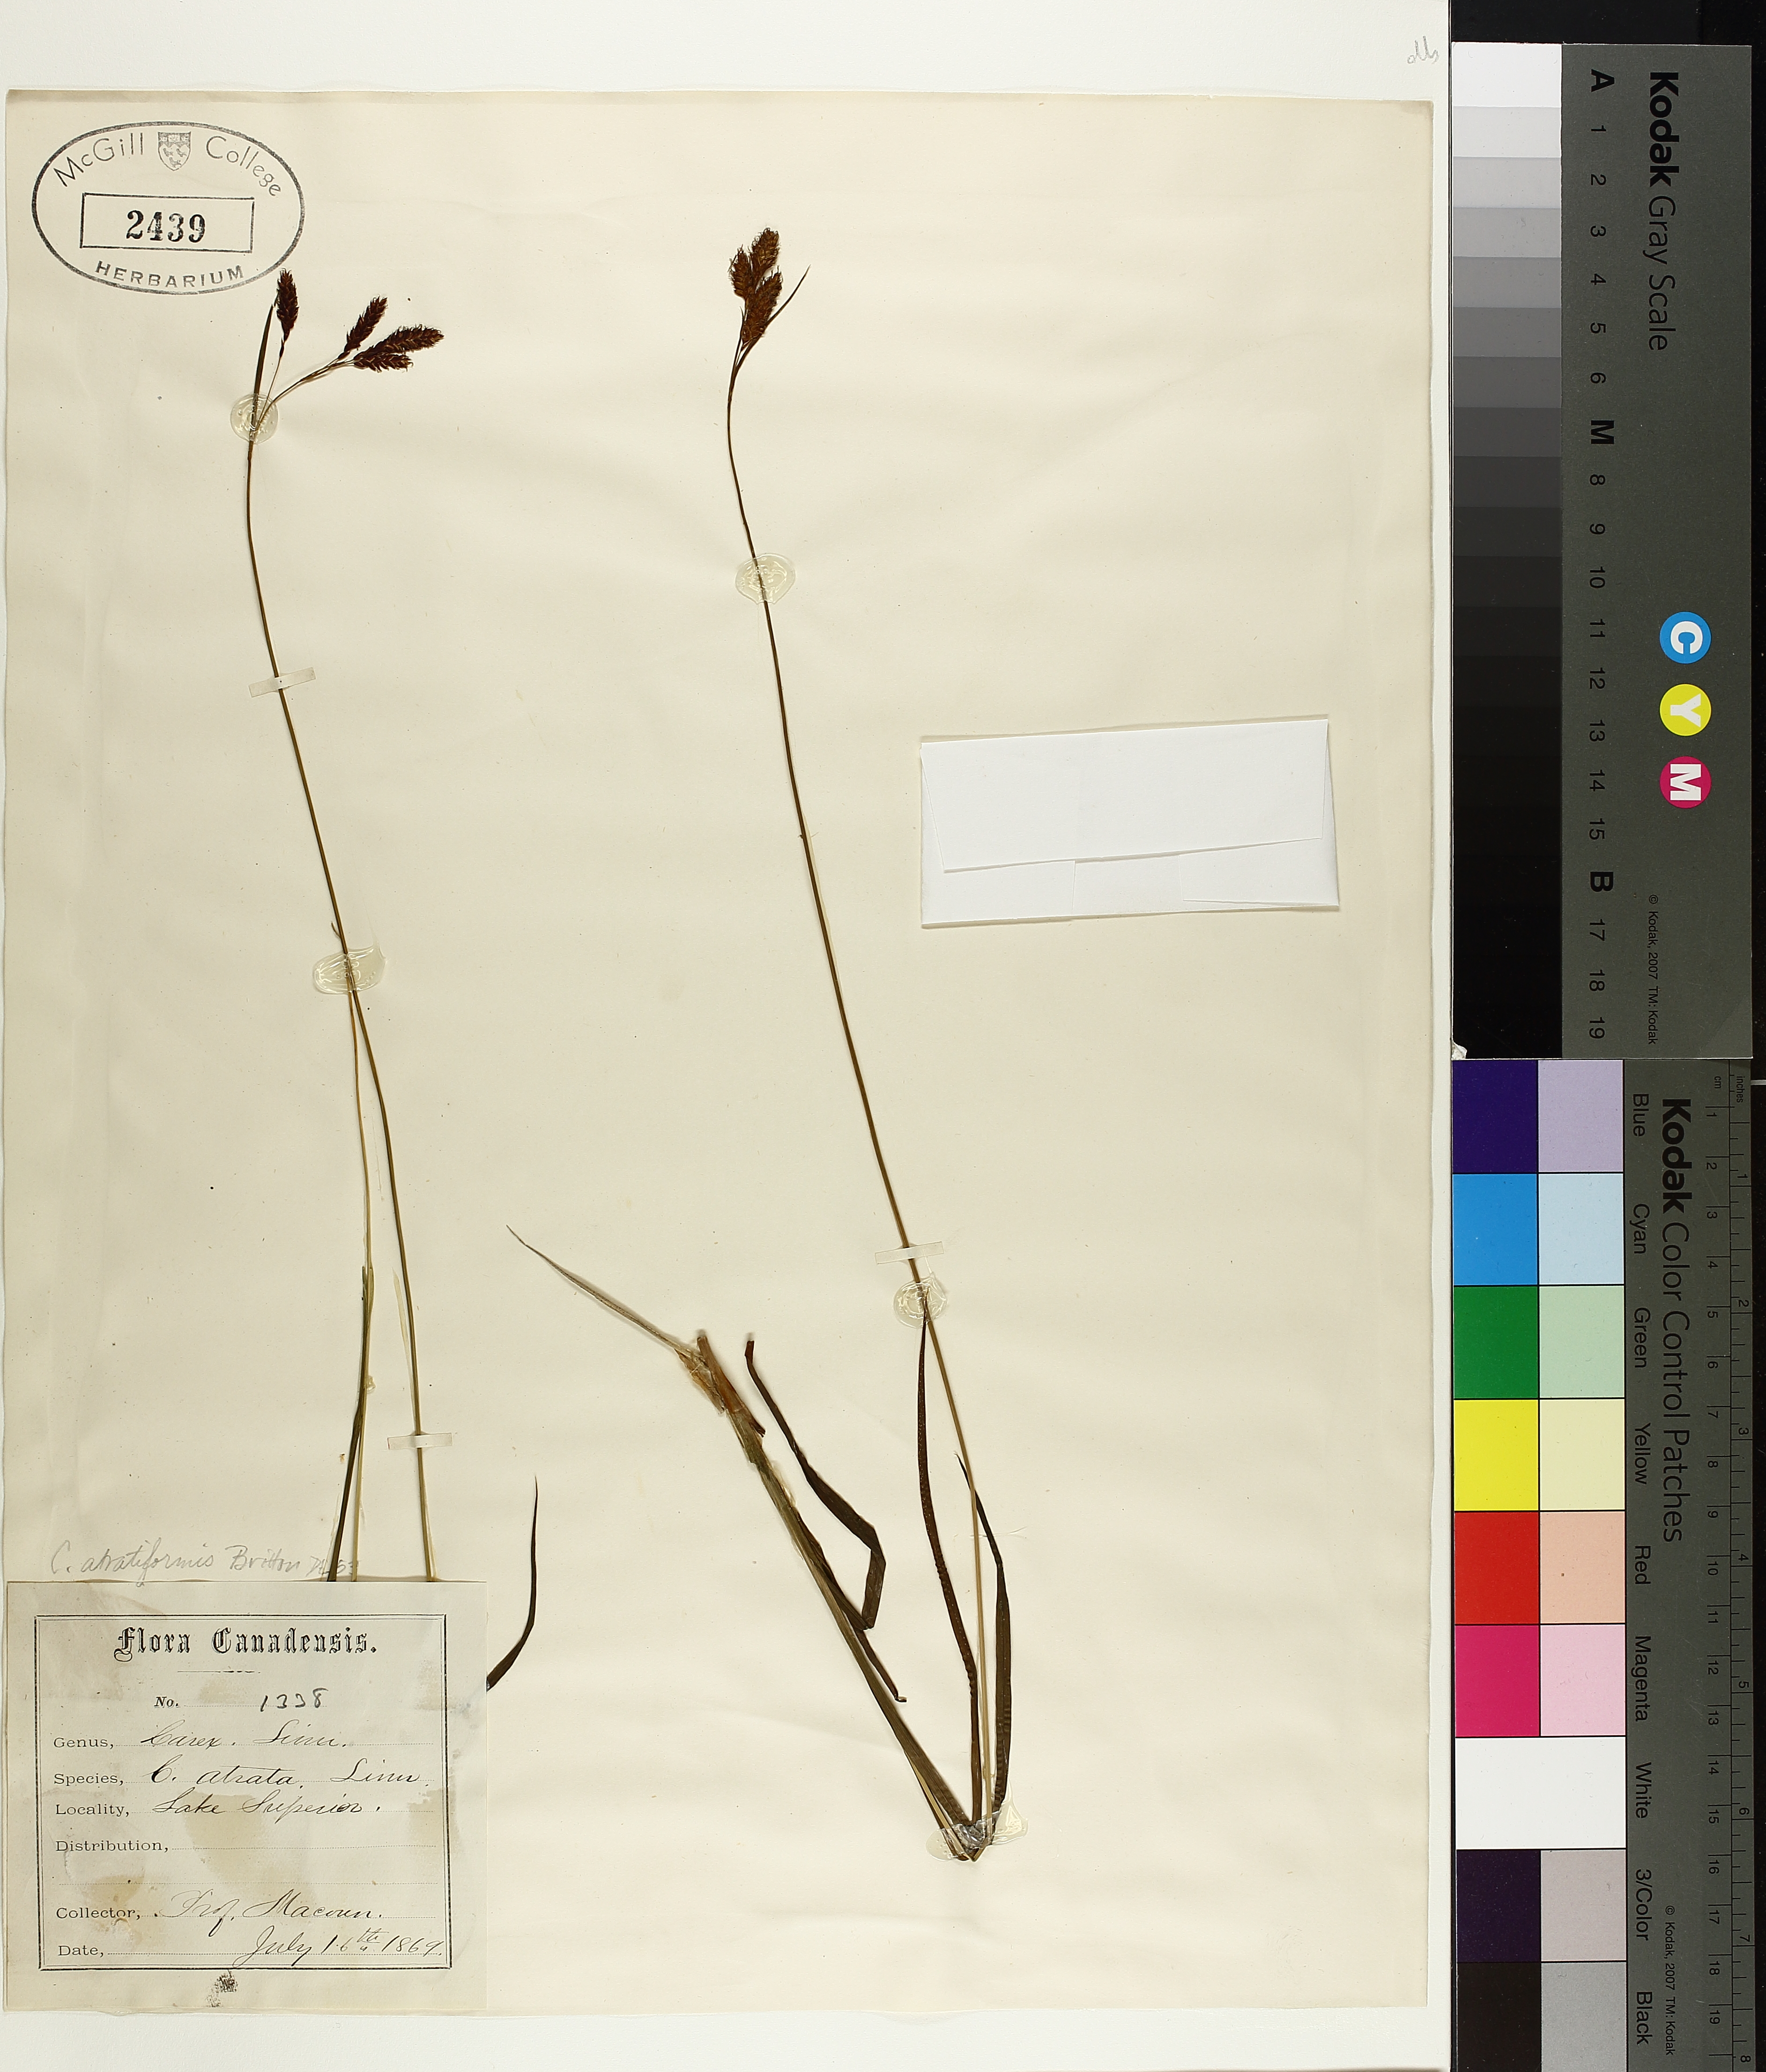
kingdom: Plantae
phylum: Tracheophyta
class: Liliopsida
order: Poales
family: Cyperaceae
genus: Carex
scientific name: Carex atratiformis
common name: Black sedge
